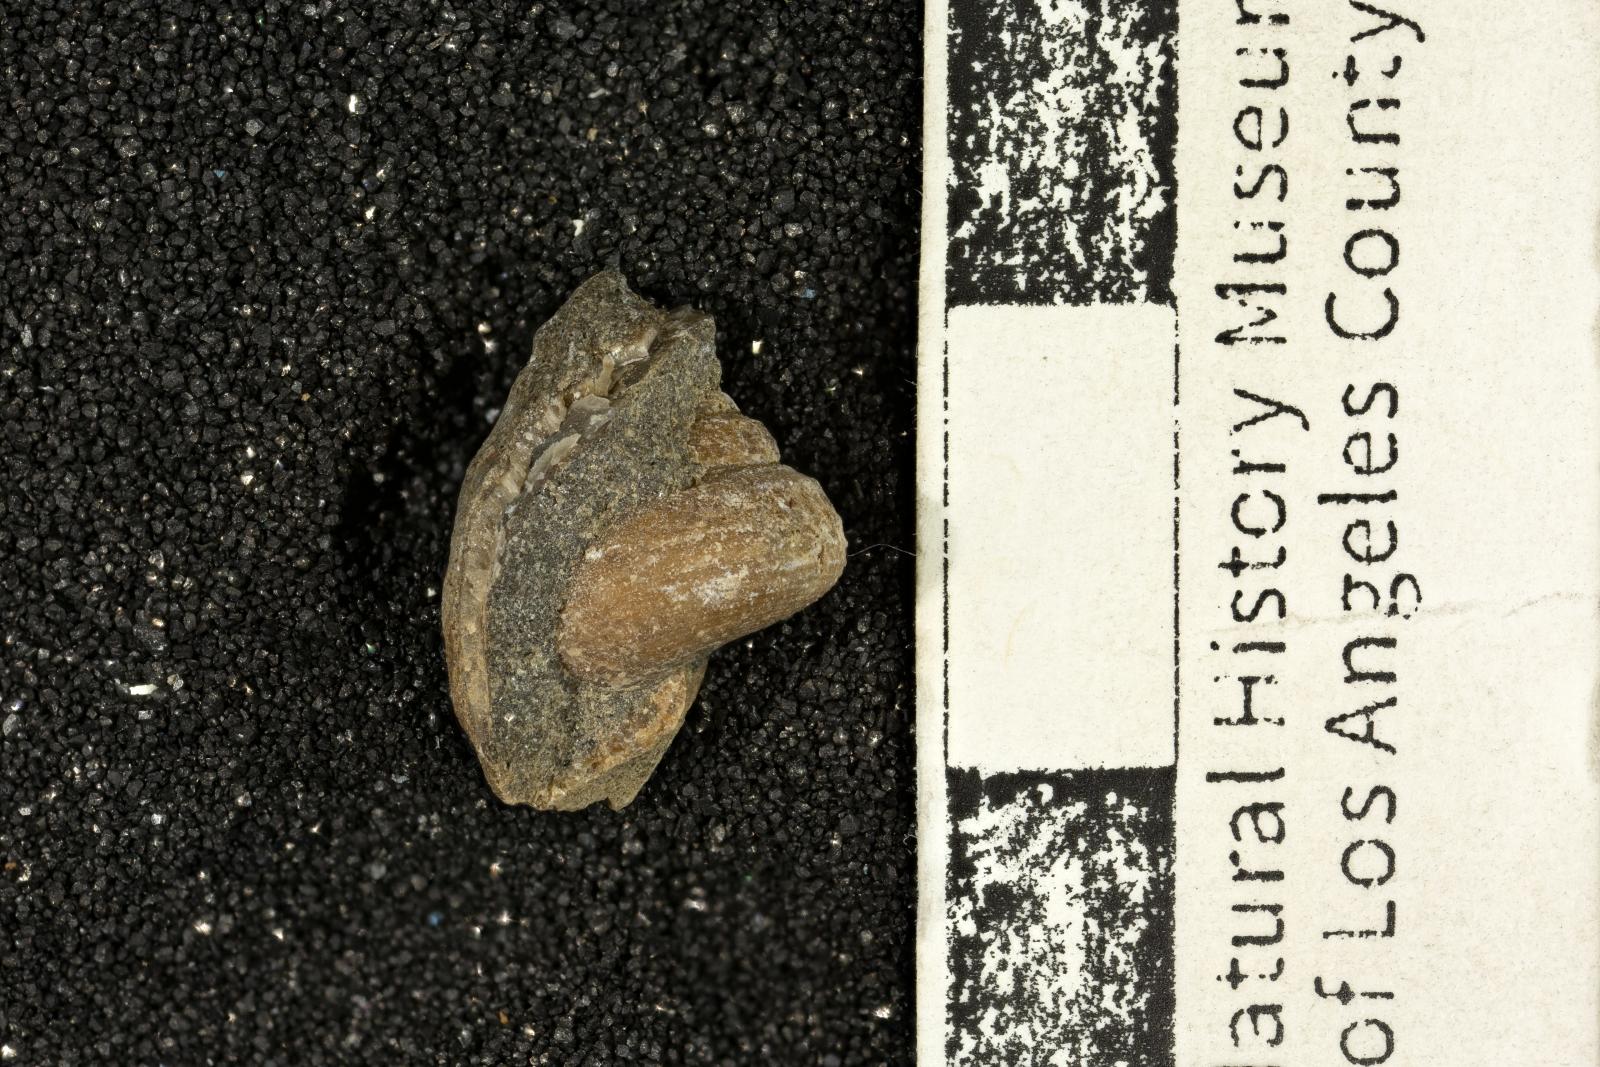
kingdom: Animalia
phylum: Mollusca
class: Gastropoda
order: Trochida
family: Turbinidae
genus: Igonoia
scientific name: Igonoia vacca
